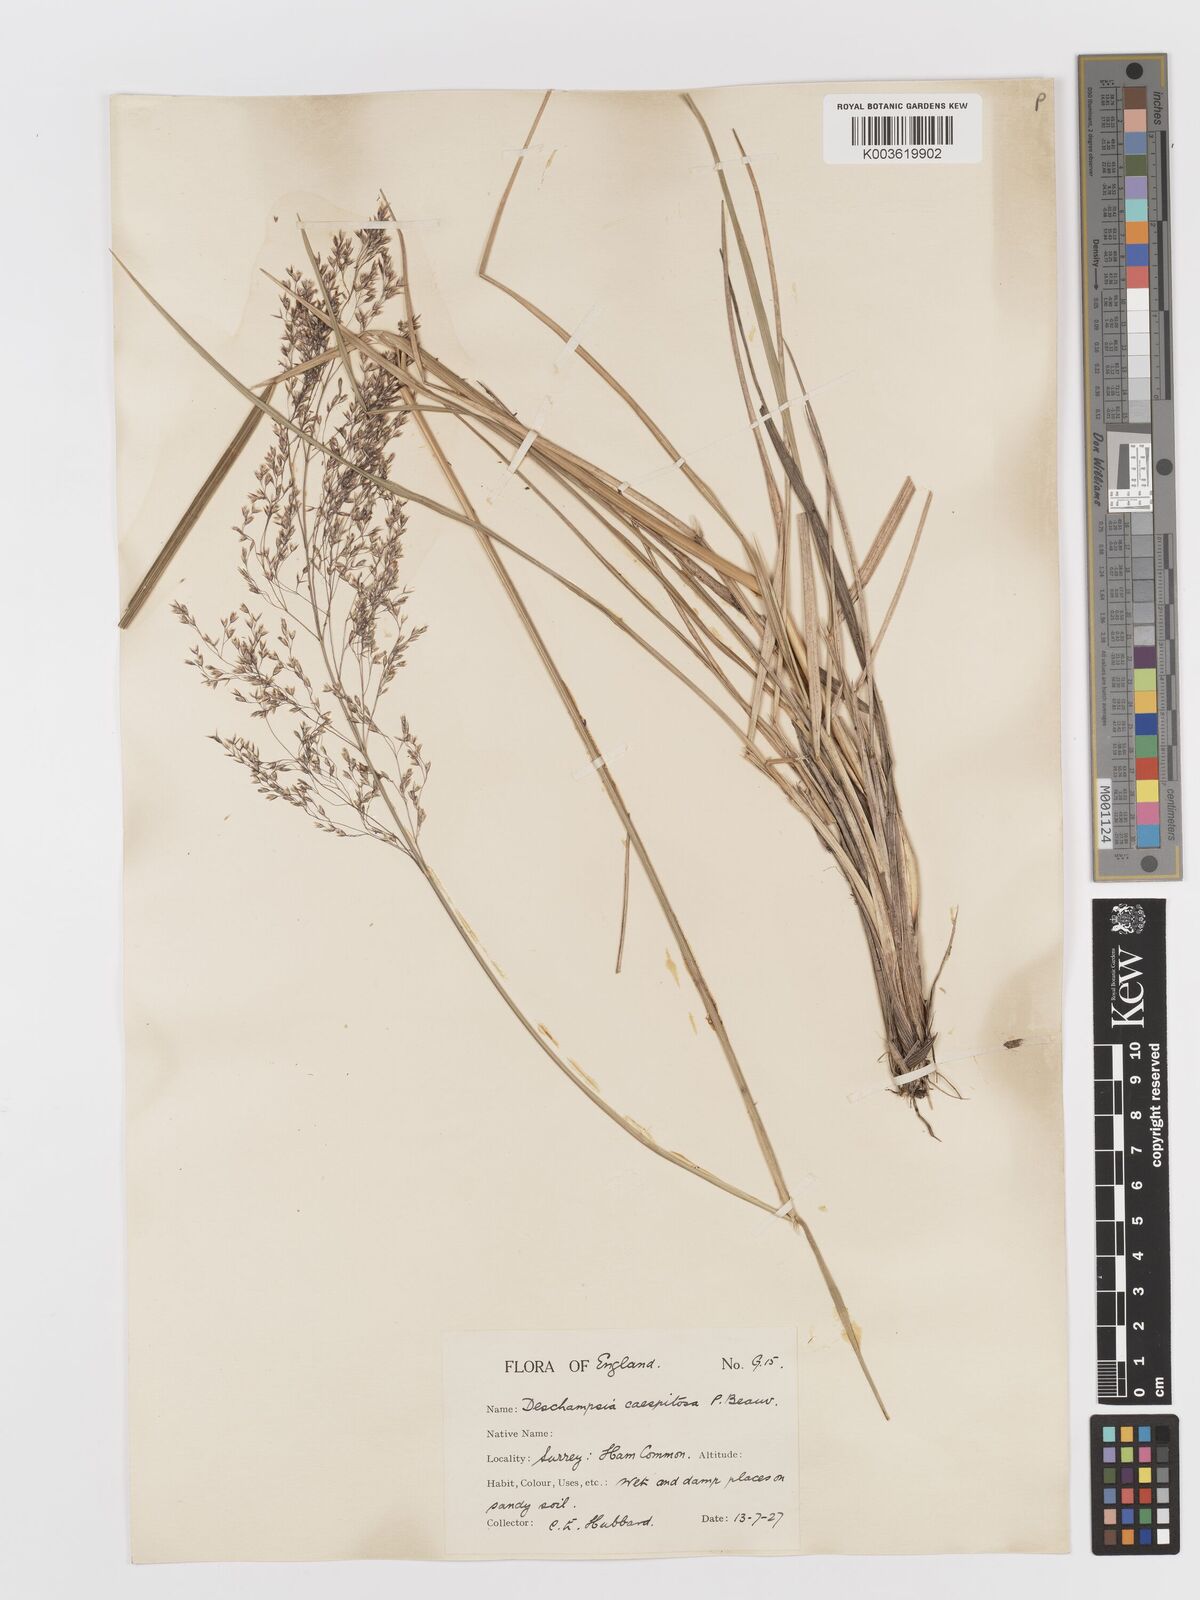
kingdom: Plantae
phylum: Tracheophyta
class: Liliopsida
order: Poales
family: Poaceae
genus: Deschampsia
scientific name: Deschampsia
